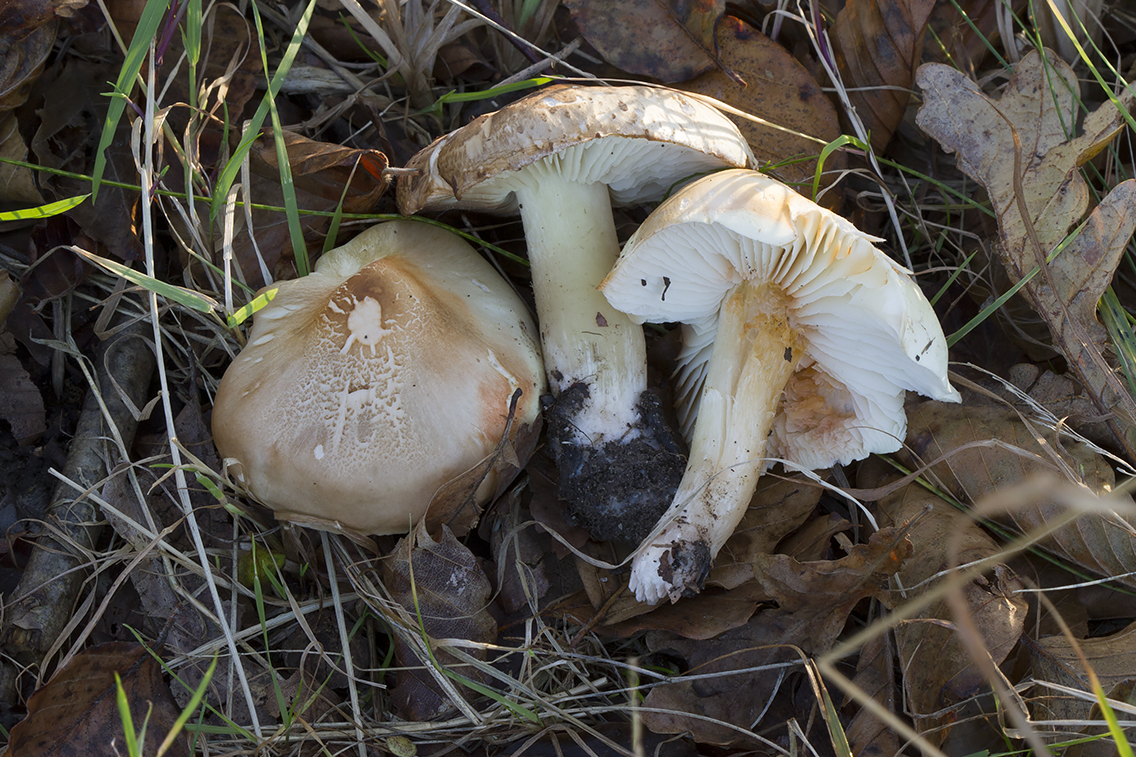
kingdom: Fungi
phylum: Basidiomycota
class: Agaricomycetes
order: Agaricales
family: Tricholomataceae
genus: Tricholoma
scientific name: Tricholoma saponaceum
